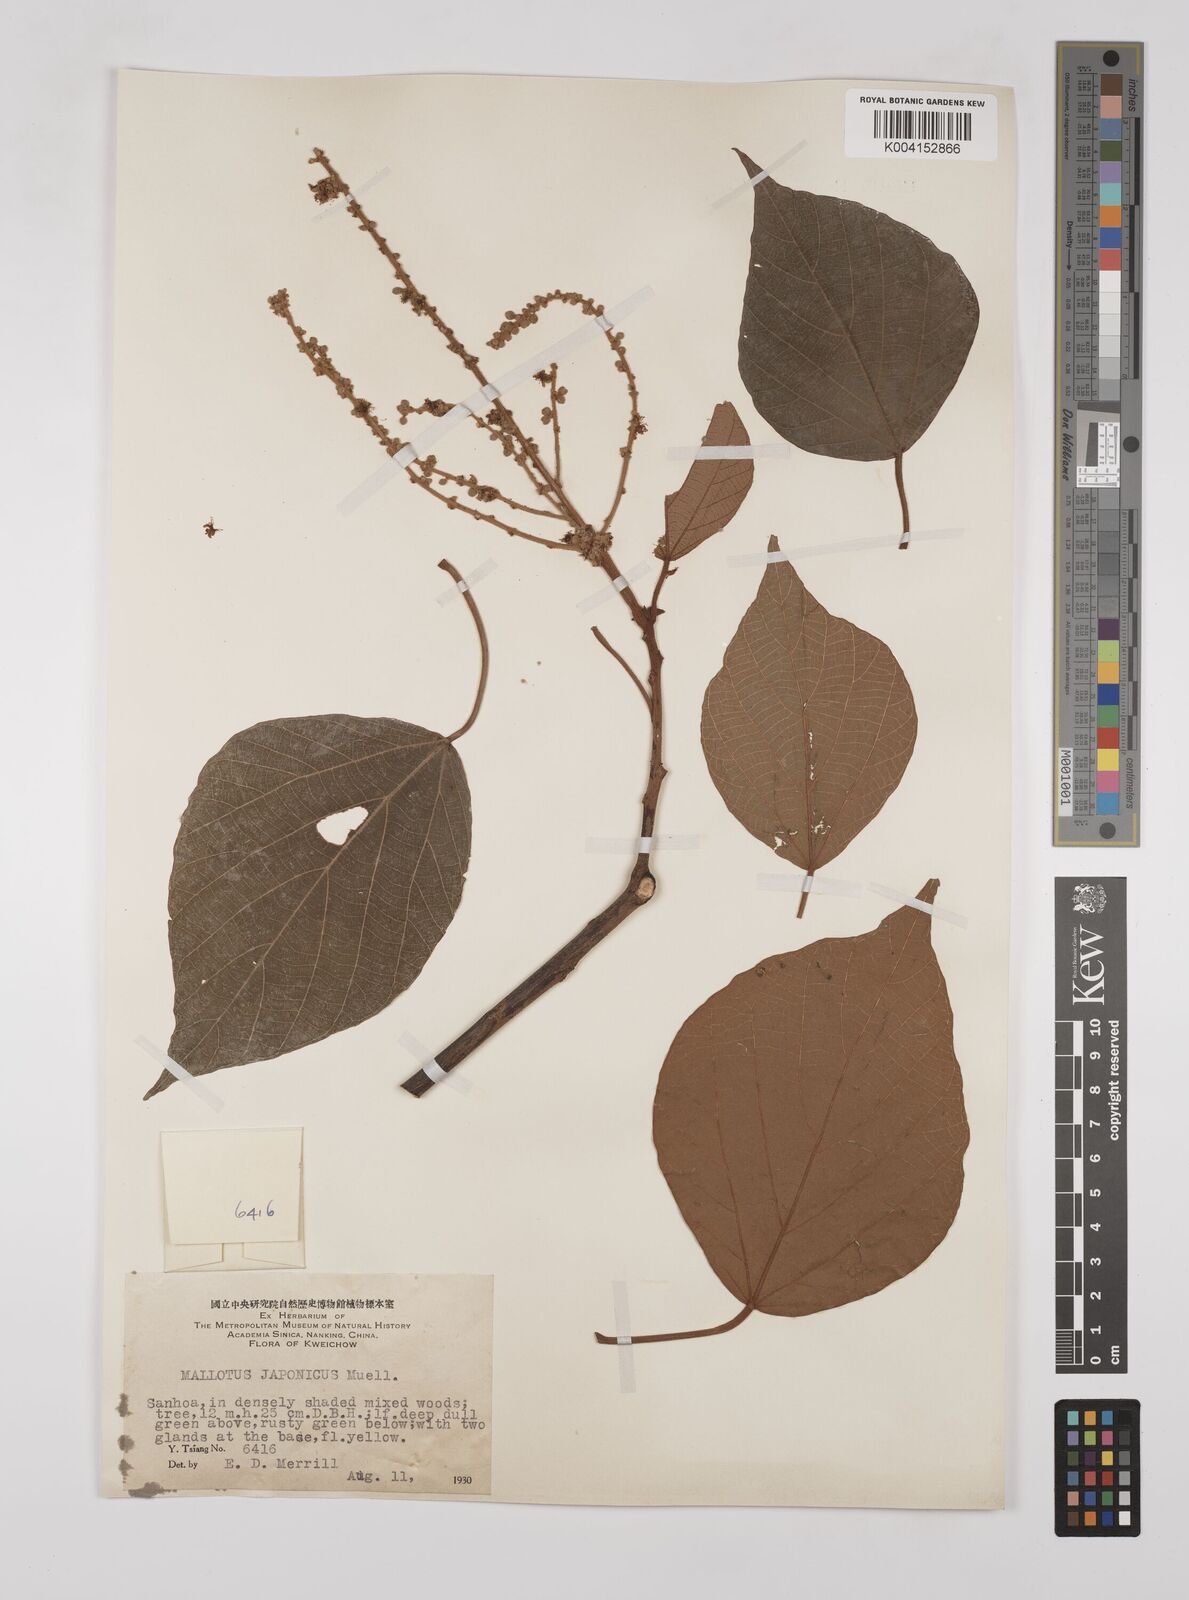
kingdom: Plantae
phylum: Tracheophyta
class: Magnoliopsida
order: Malpighiales
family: Euphorbiaceae
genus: Mallotus
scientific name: Mallotus lianus
